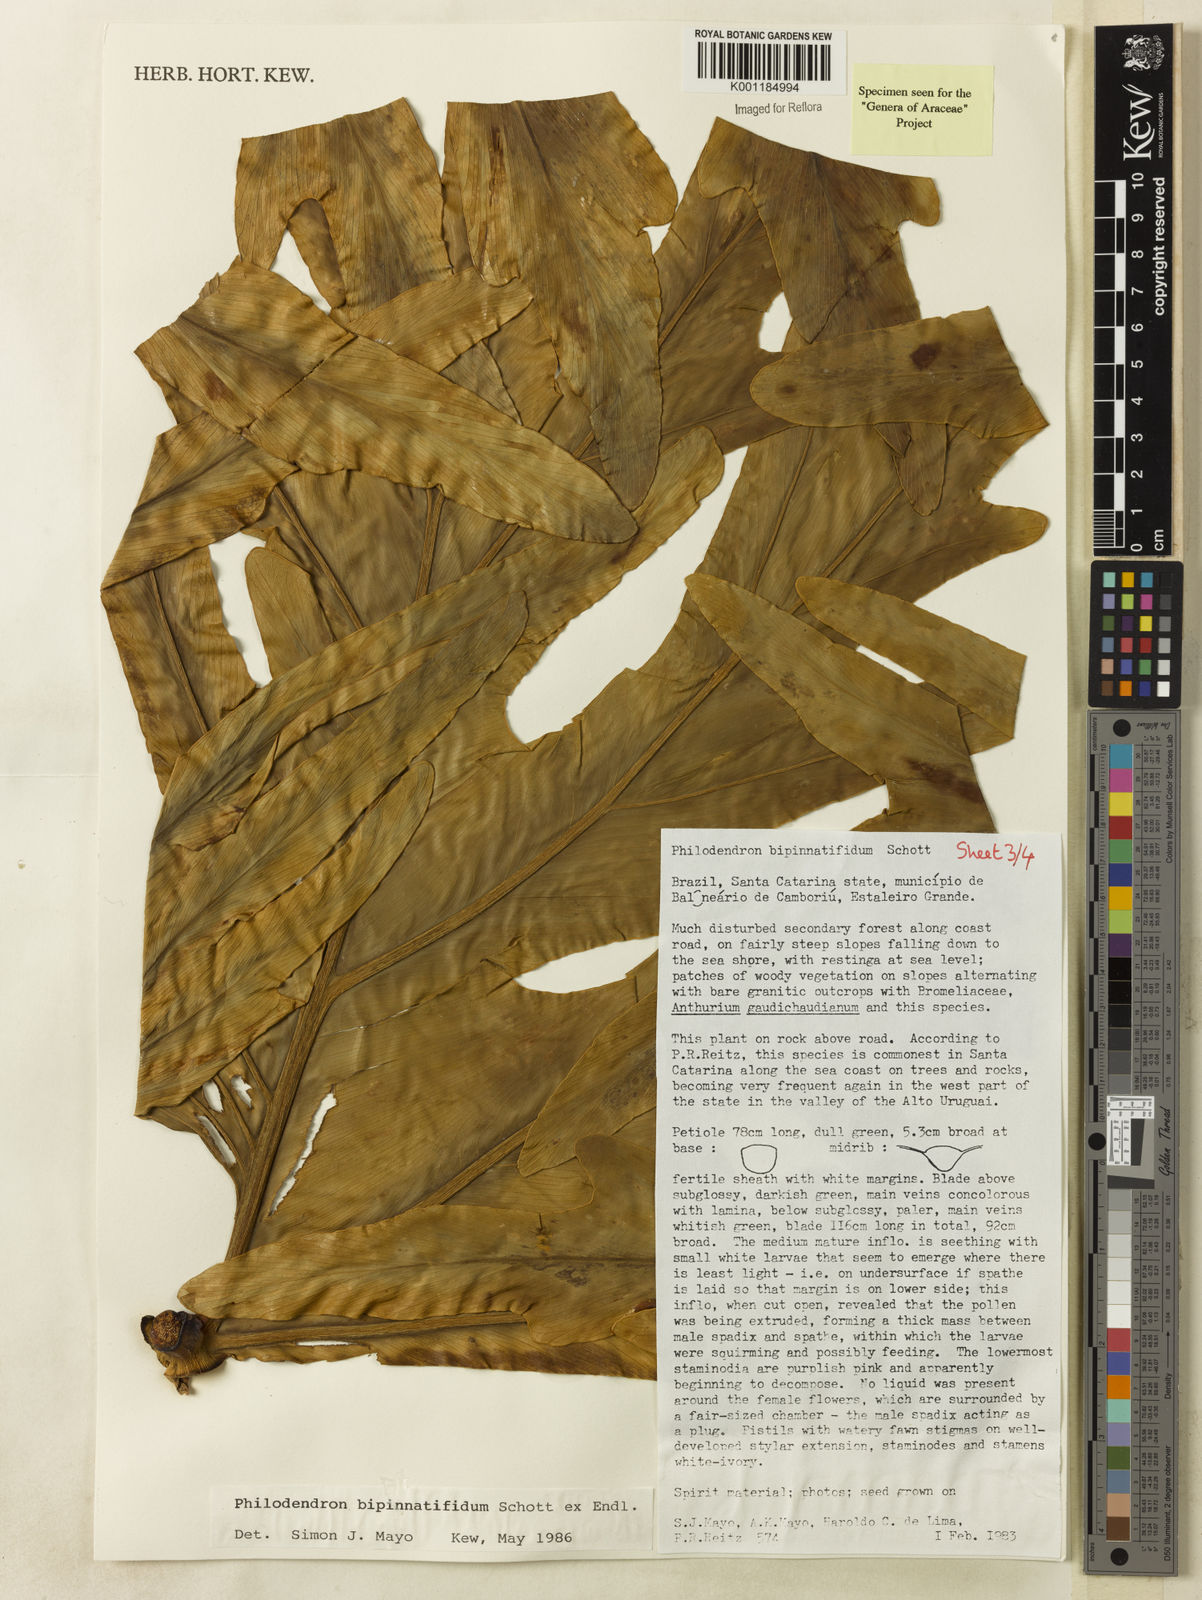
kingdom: Plantae
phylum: Tracheophyta
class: Liliopsida
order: Alismatales
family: Araceae
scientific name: Araceae
